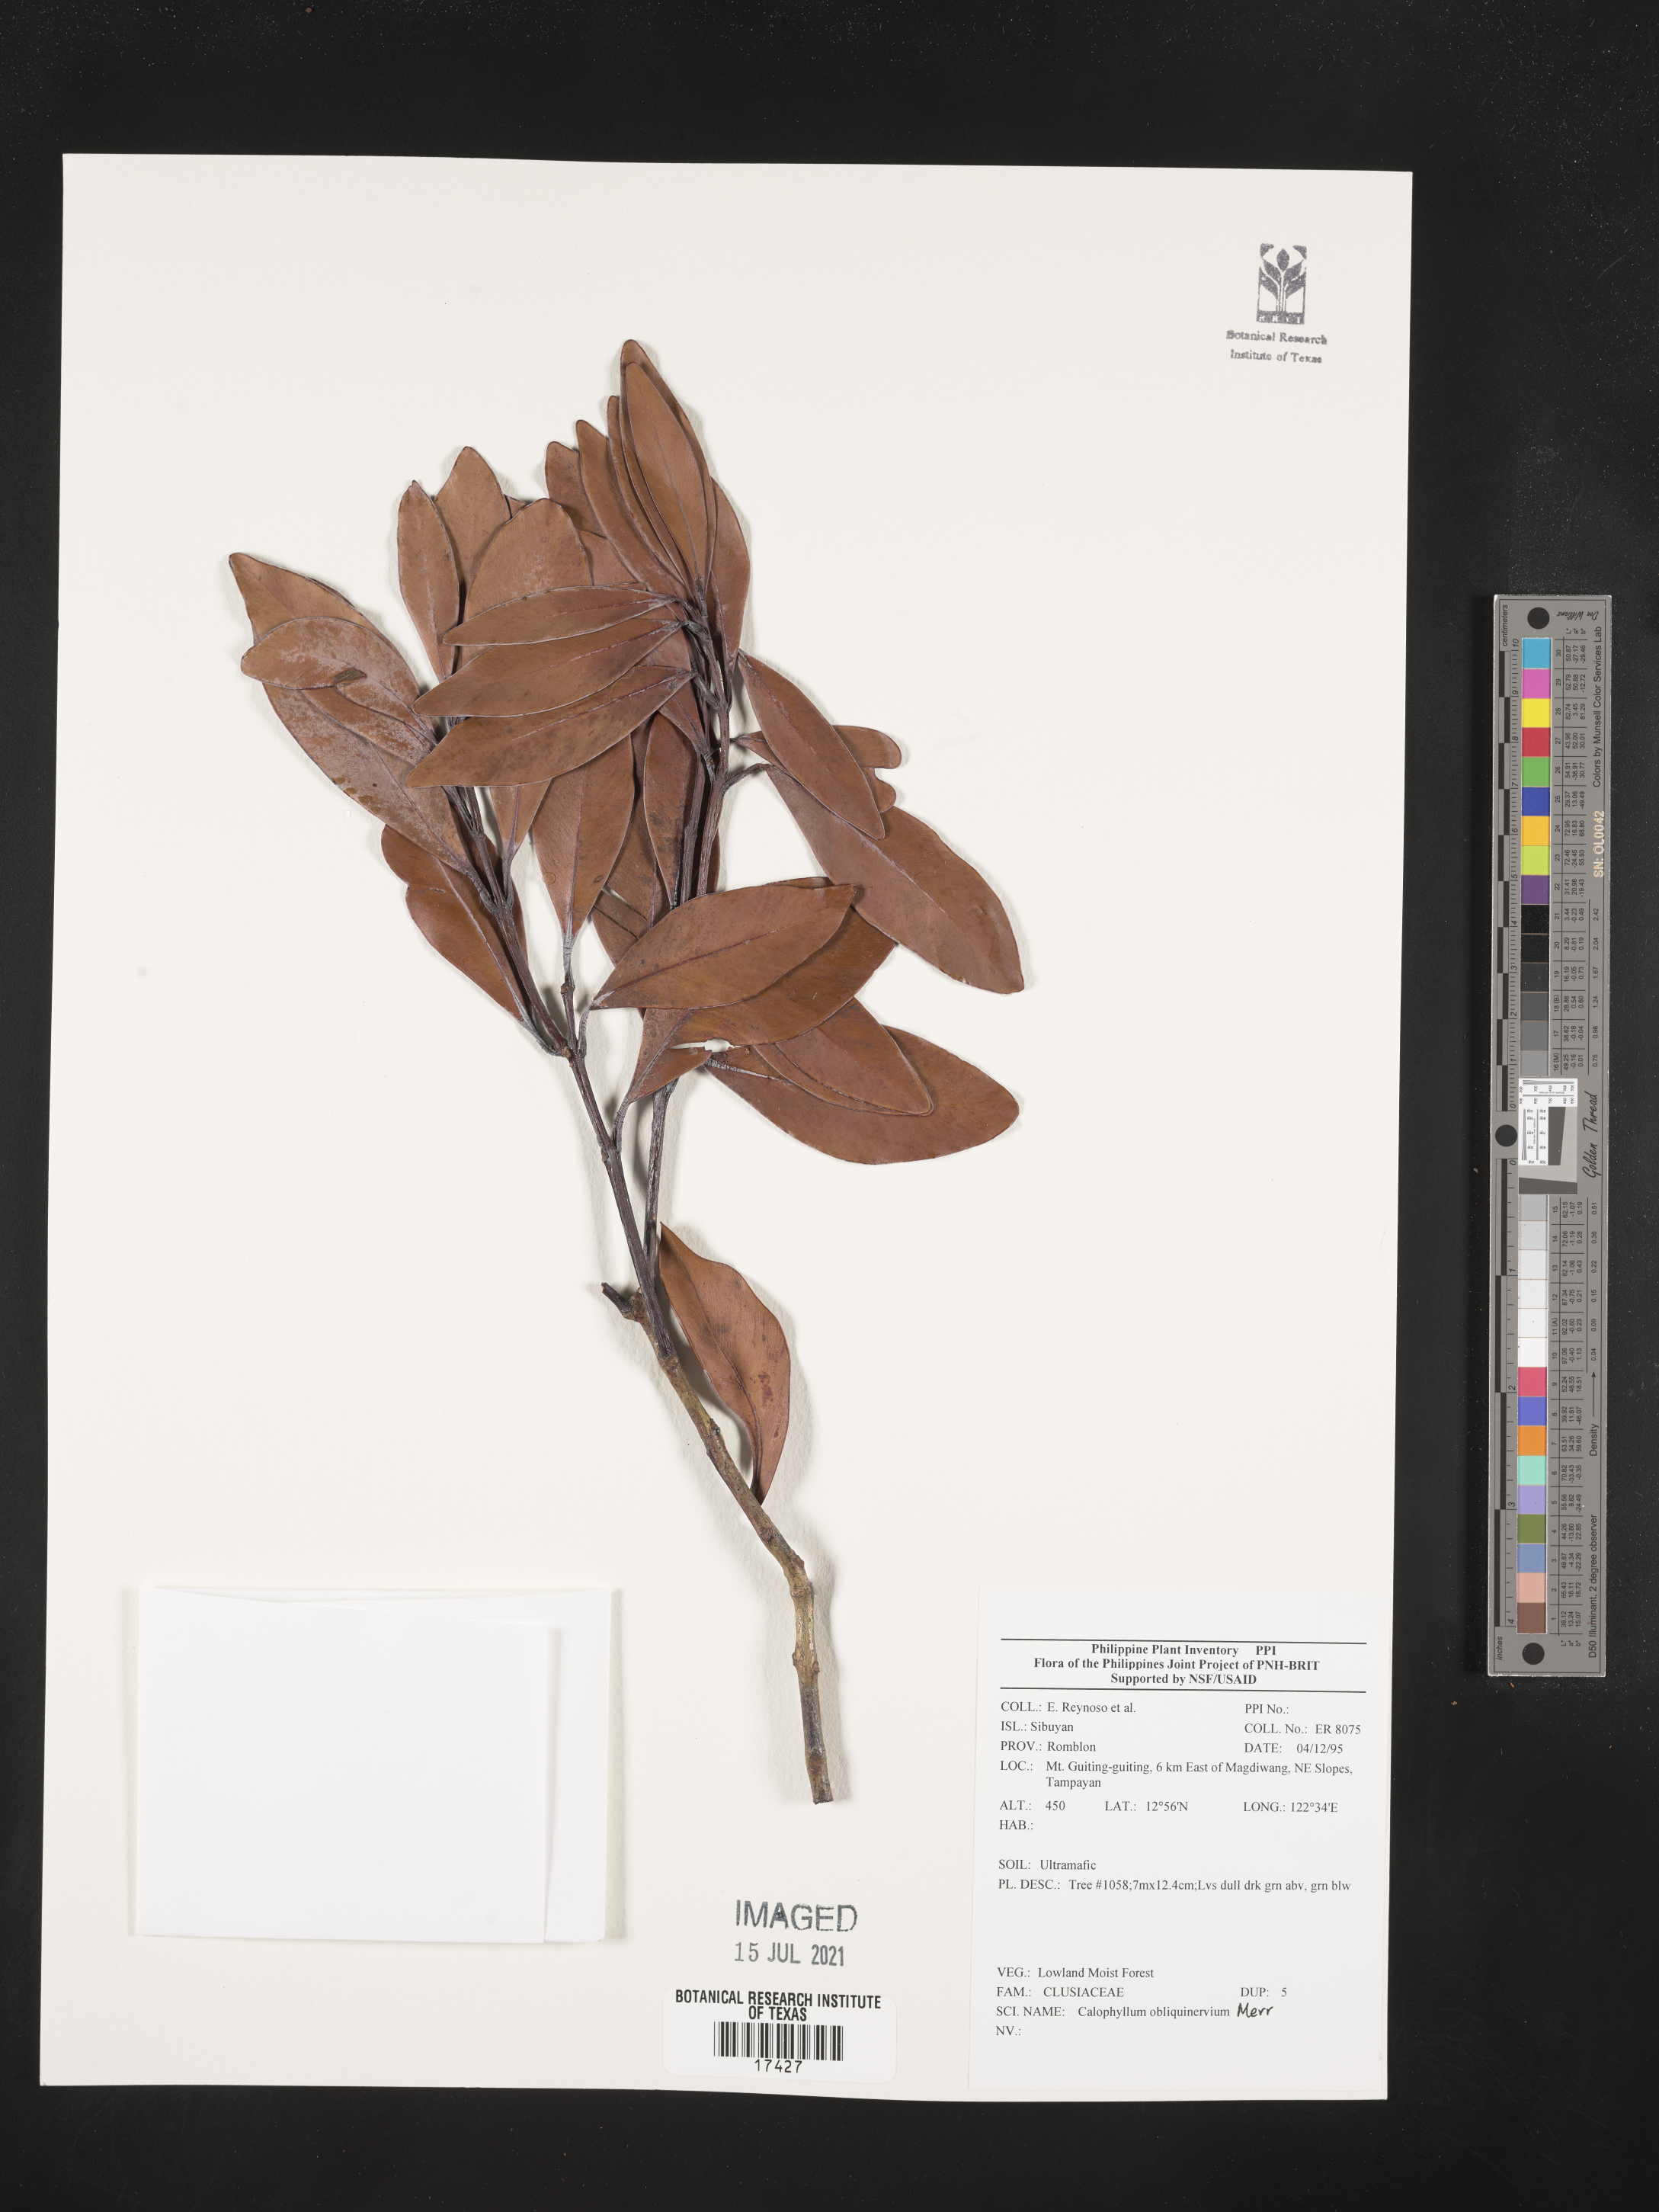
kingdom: Plantae
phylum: Tracheophyta
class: Magnoliopsida
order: Malpighiales
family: Calophyllaceae
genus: Calophyllum
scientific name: Calophyllum obliquinervium
